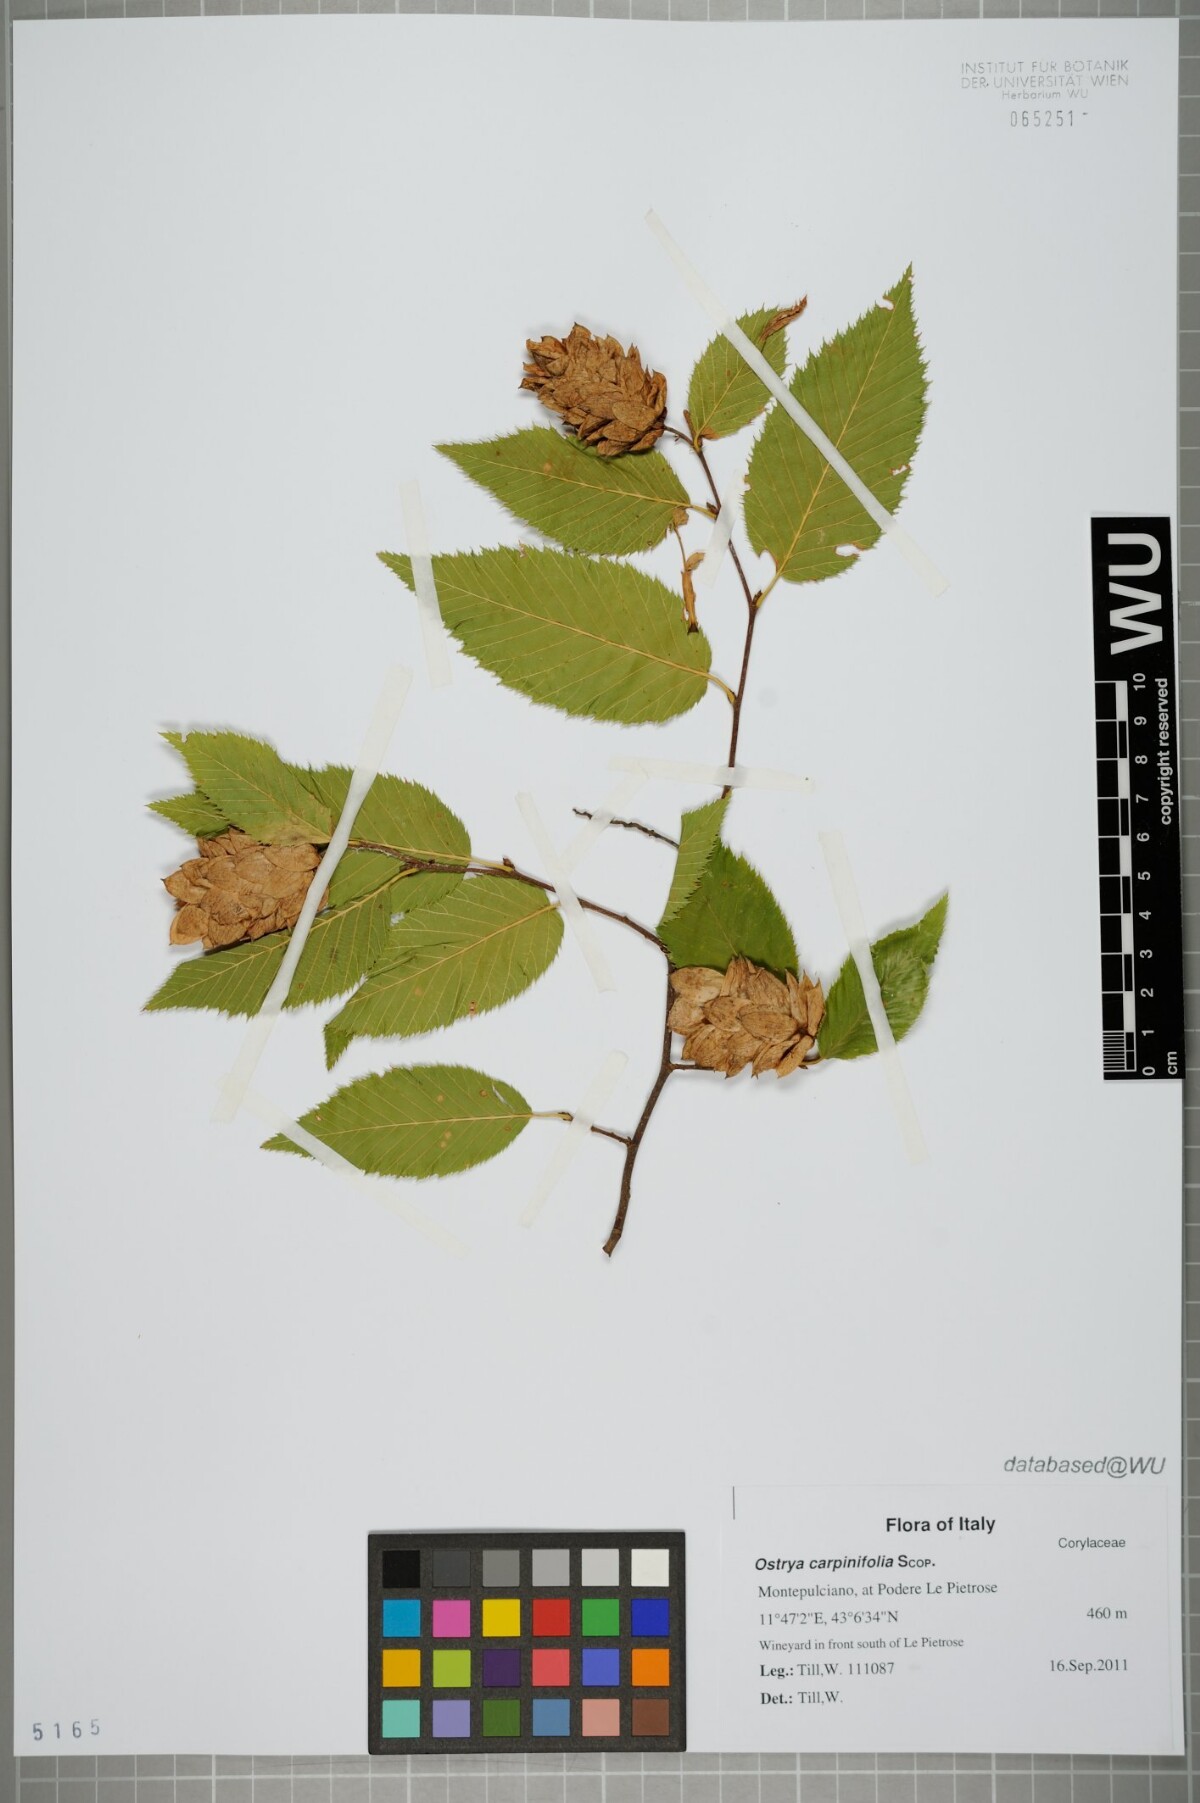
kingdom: Plantae
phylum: Tracheophyta
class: Magnoliopsida
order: Fagales
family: Betulaceae
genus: Ostrya
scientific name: Ostrya carpinifolia
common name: European hop-hornbeam
